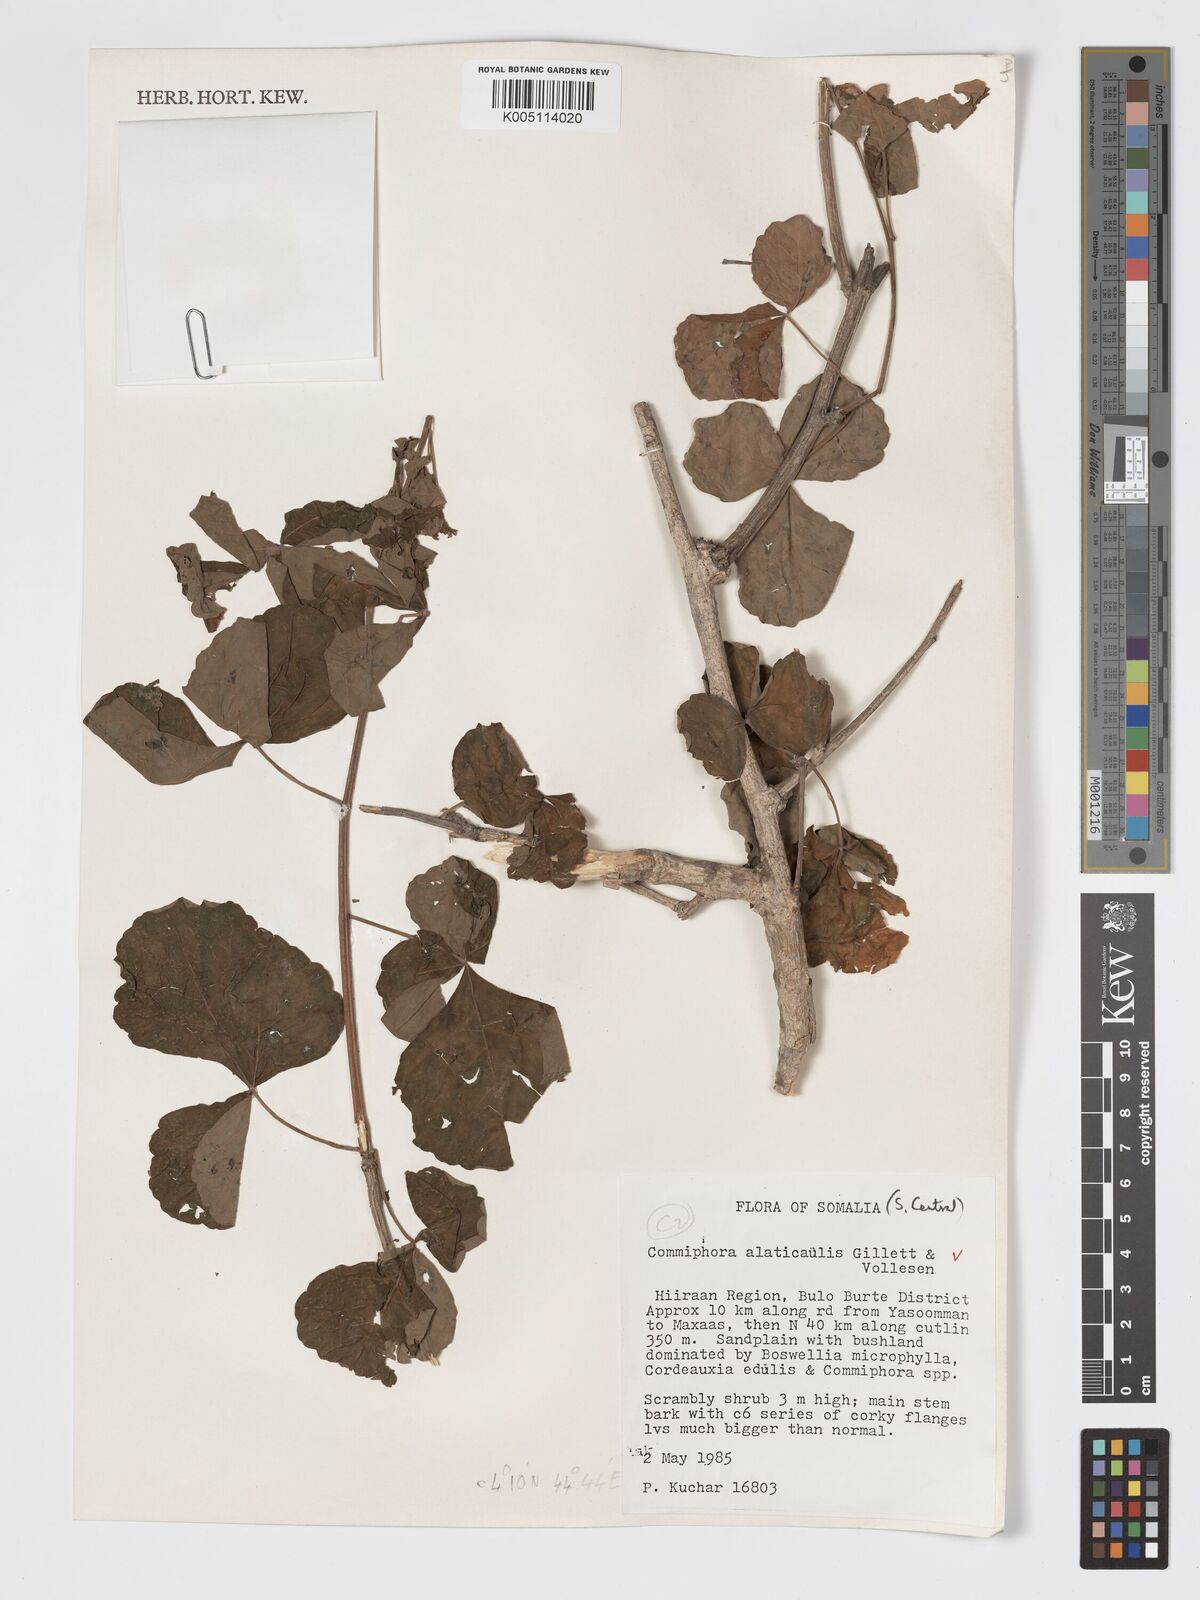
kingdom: Plantae
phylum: Tracheophyta
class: Magnoliopsida
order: Sapindales
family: Burseraceae
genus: Commiphora
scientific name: Commiphora
